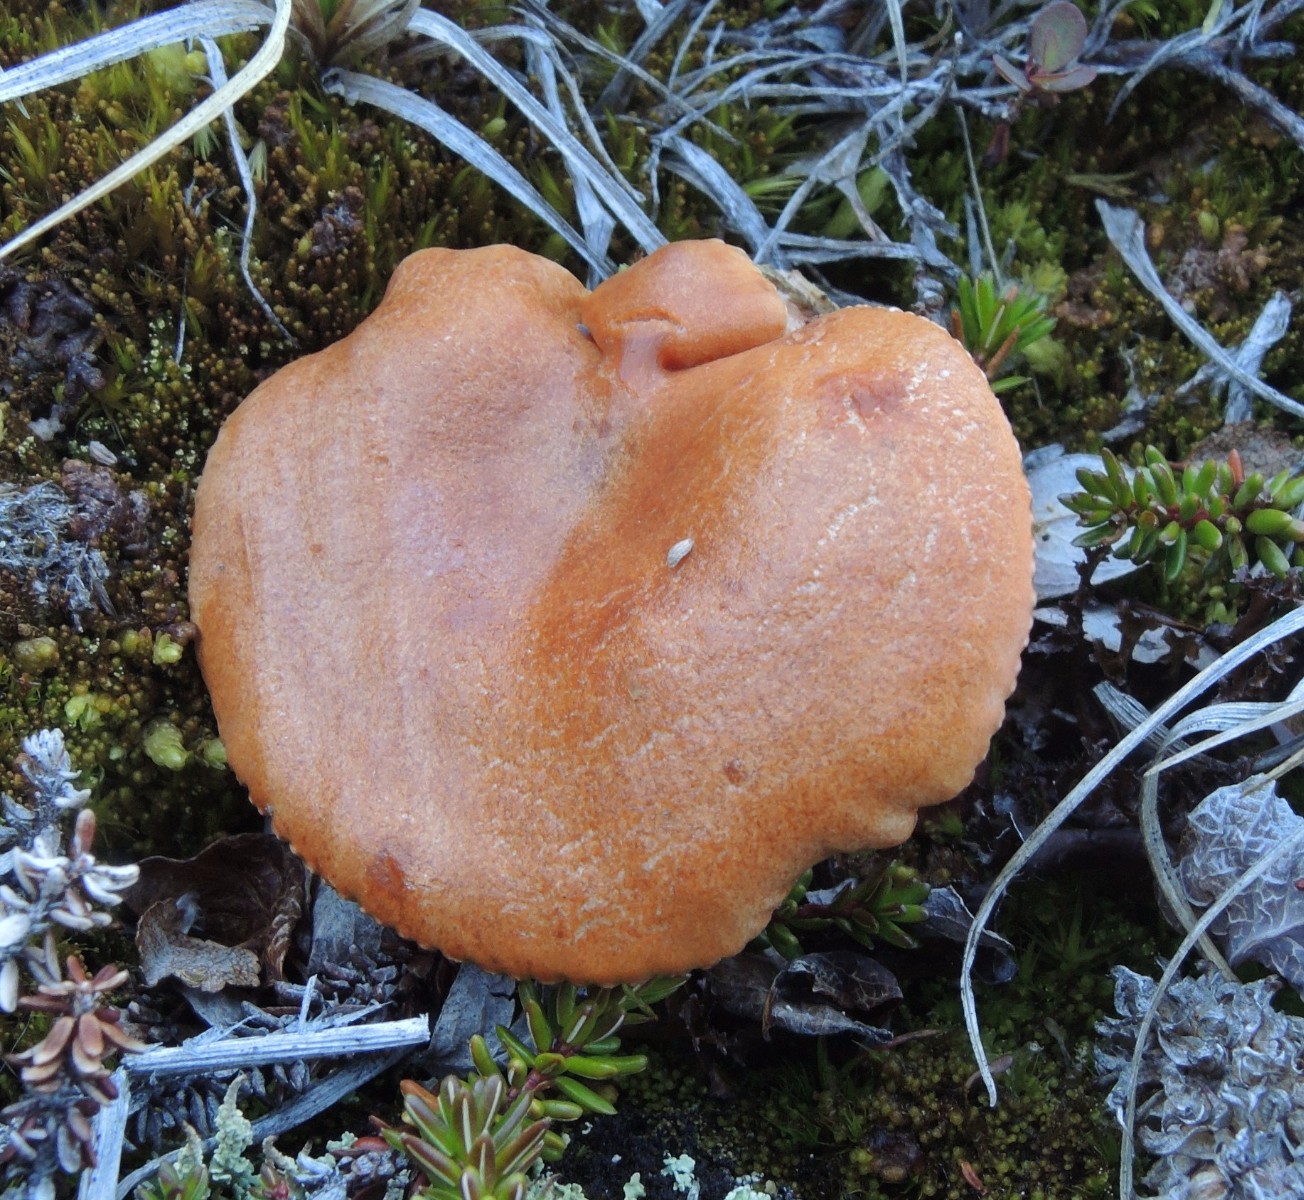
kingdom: Fungi
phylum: Basidiomycota
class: Agaricomycetes
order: Russulales
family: Russulaceae
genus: Lactarius
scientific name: Lactarius lanceolatus
